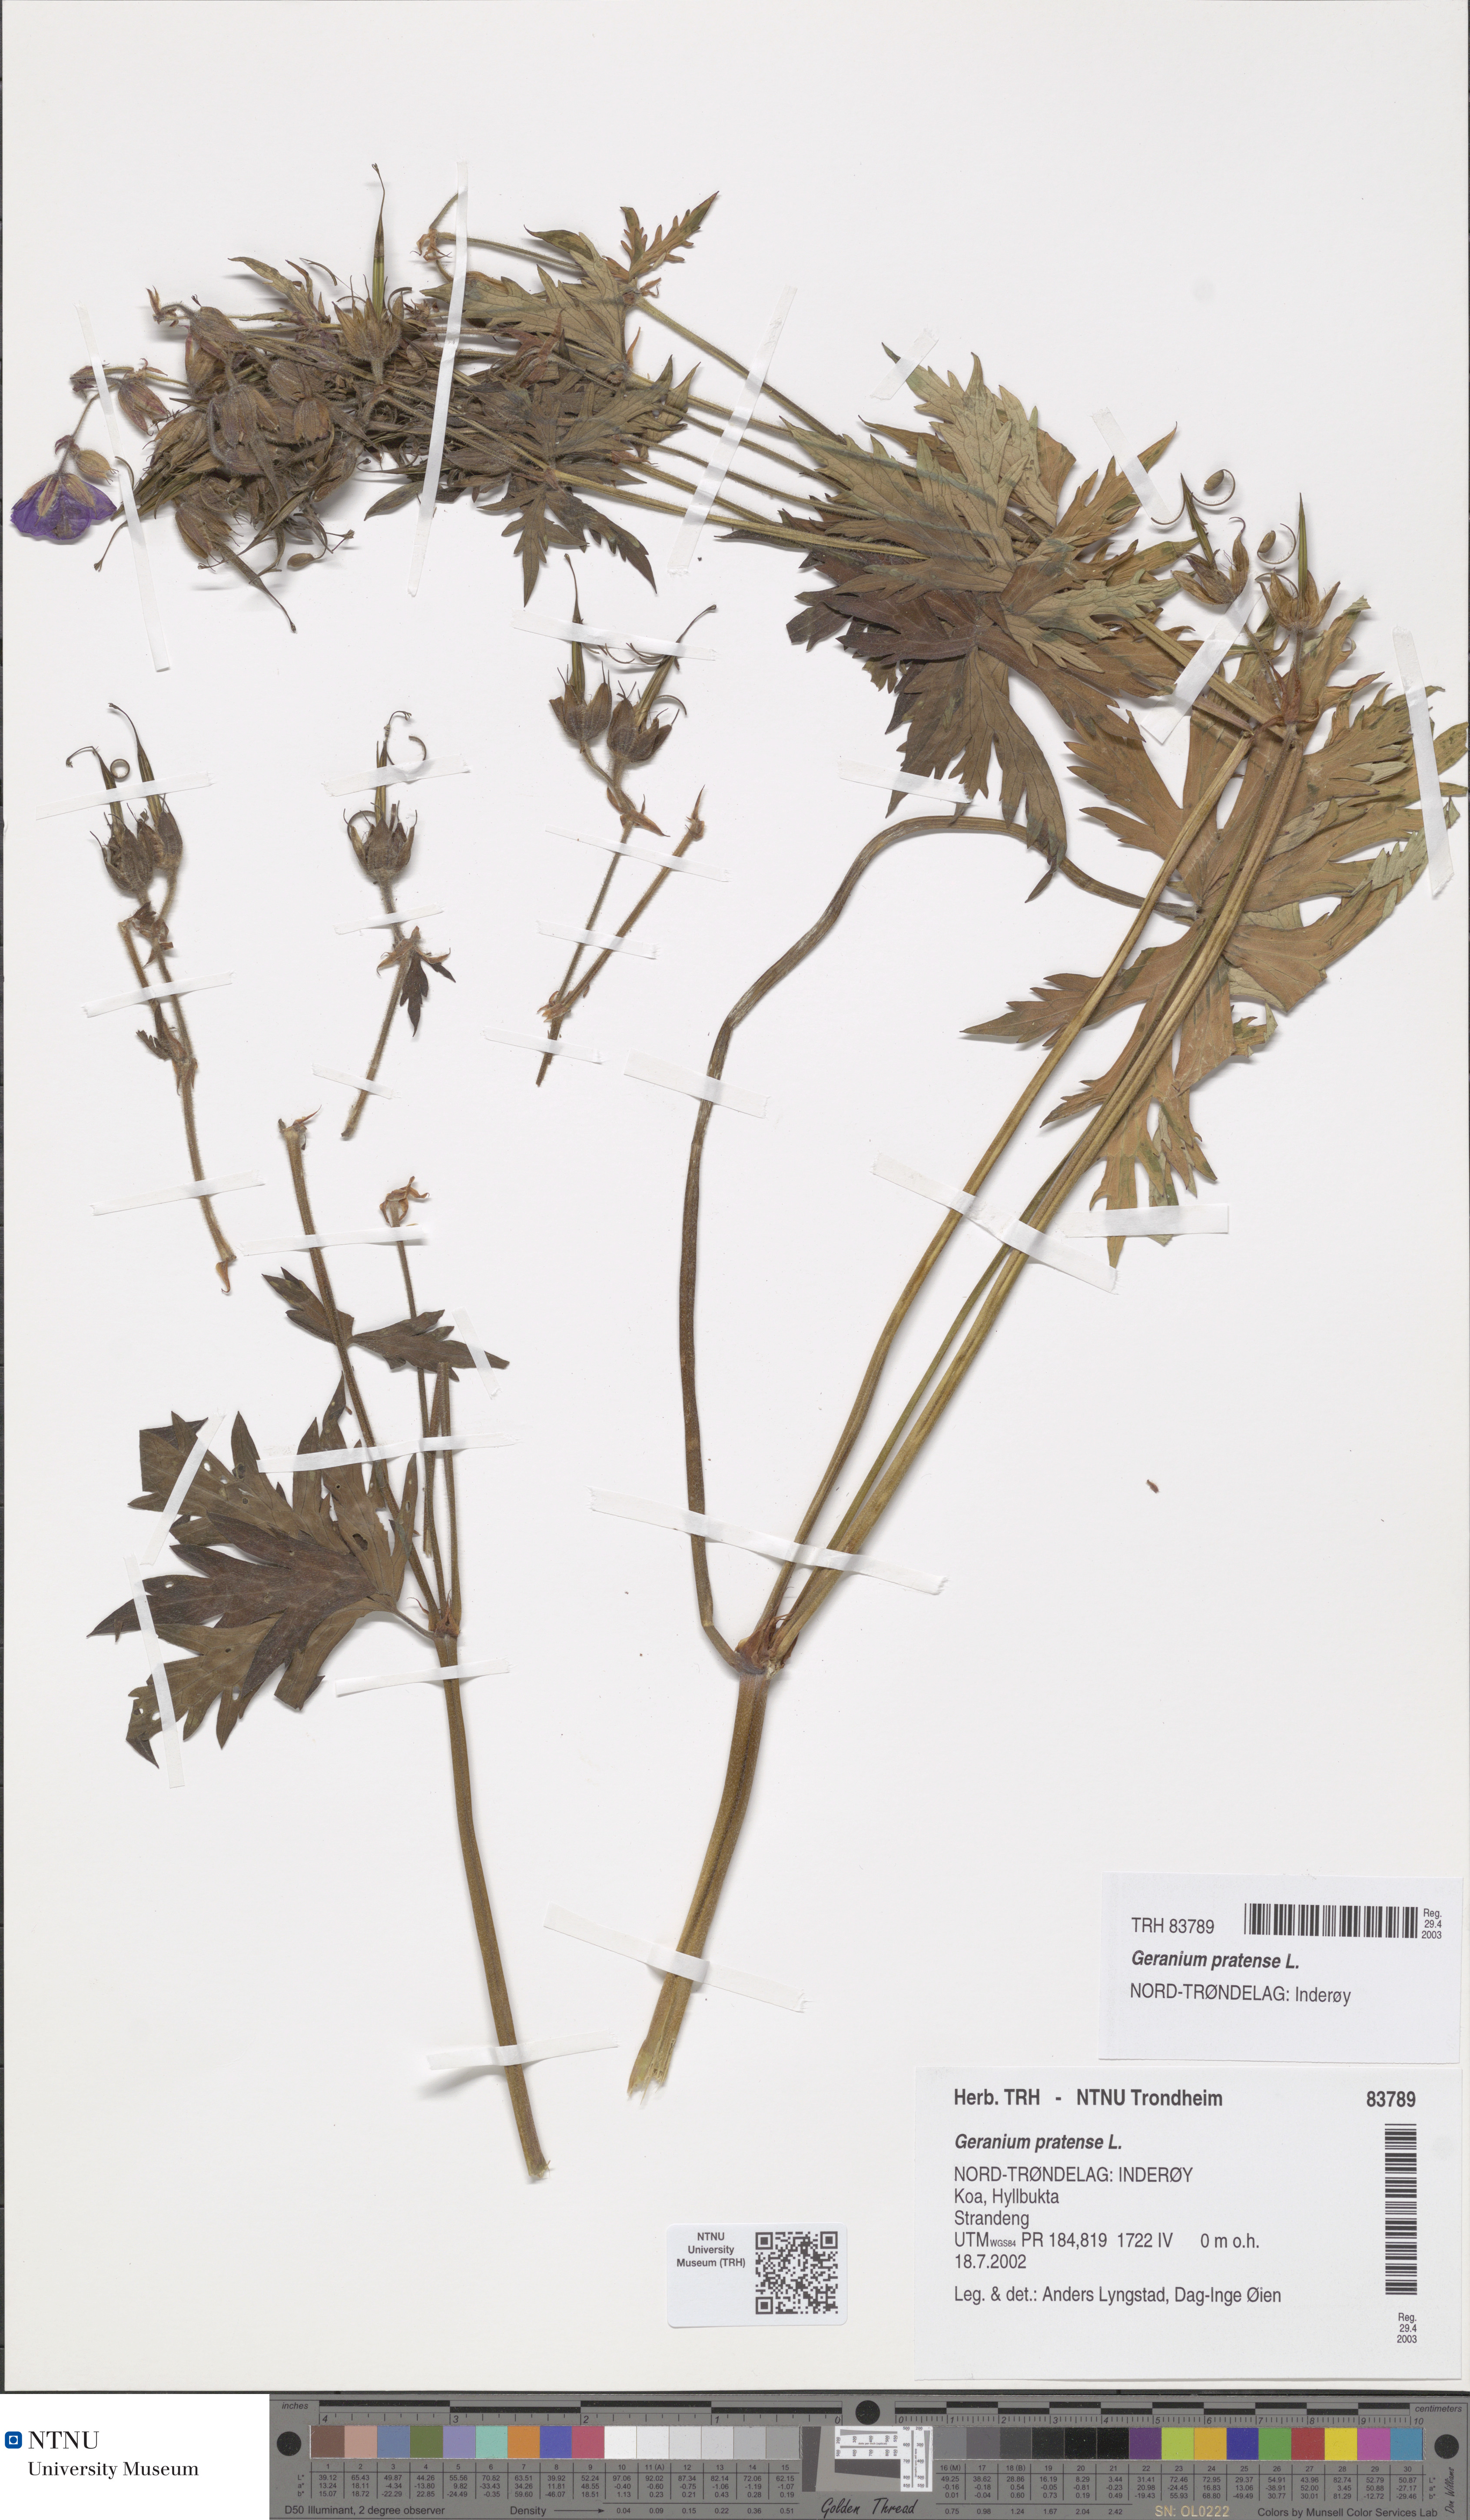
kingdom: Plantae
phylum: Tracheophyta
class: Magnoliopsida
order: Geraniales
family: Geraniaceae
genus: Geranium
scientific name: Geranium pratense
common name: Meadow crane's-bill
